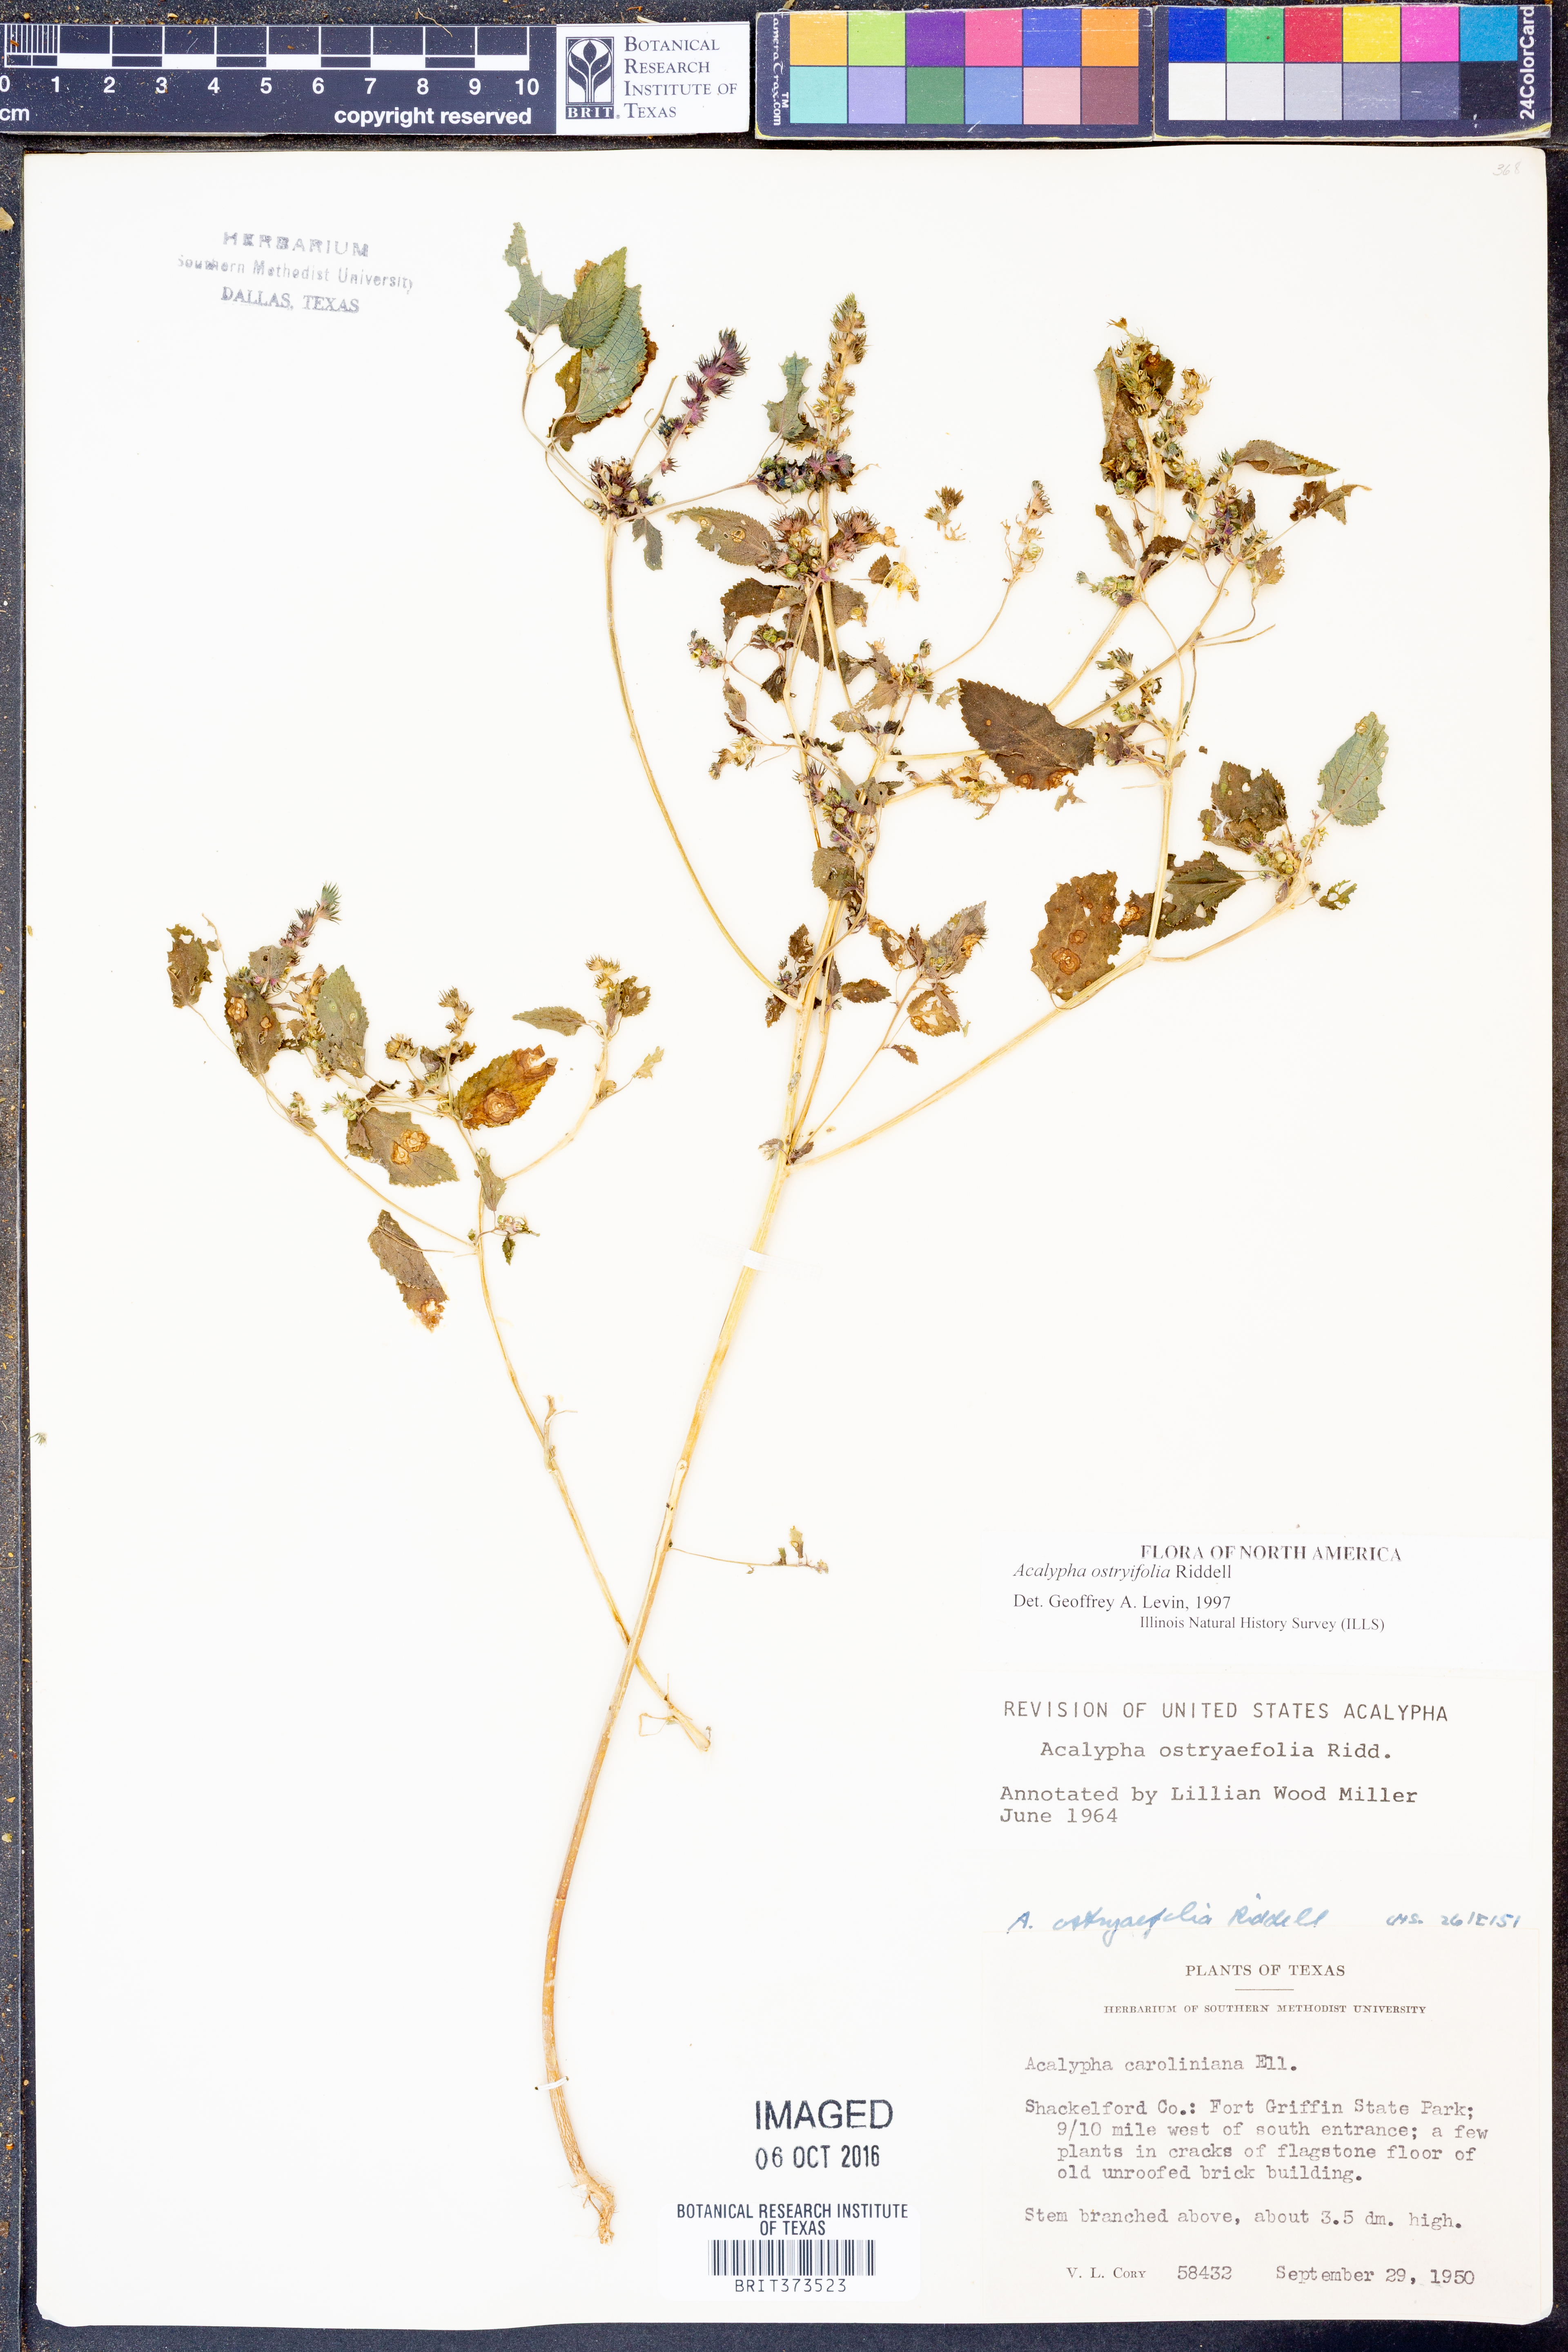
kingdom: Plantae
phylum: Tracheophyta
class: Magnoliopsida
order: Malpighiales
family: Euphorbiaceae
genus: Acalypha
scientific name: Acalypha persimilis
